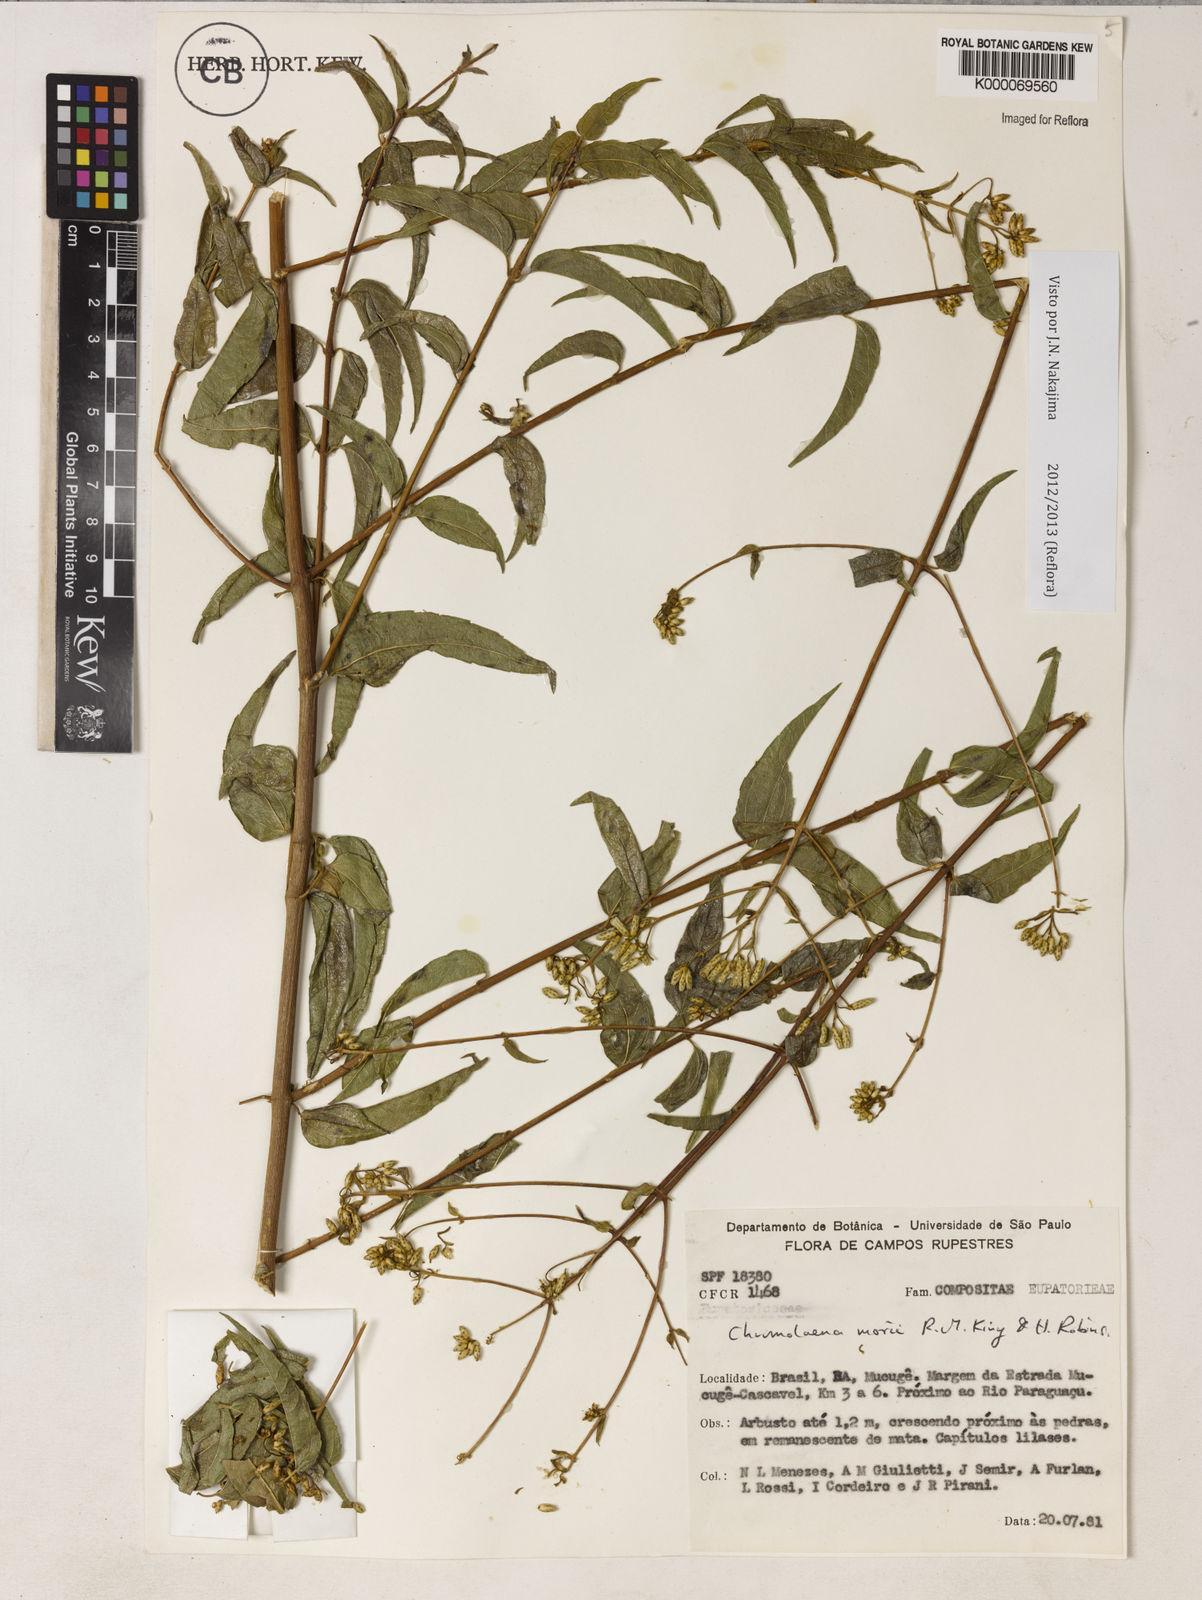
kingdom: Plantae
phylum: Tracheophyta
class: Magnoliopsida
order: Asterales
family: Asteraceae
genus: Chromolaena
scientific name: Chromolaena morii
